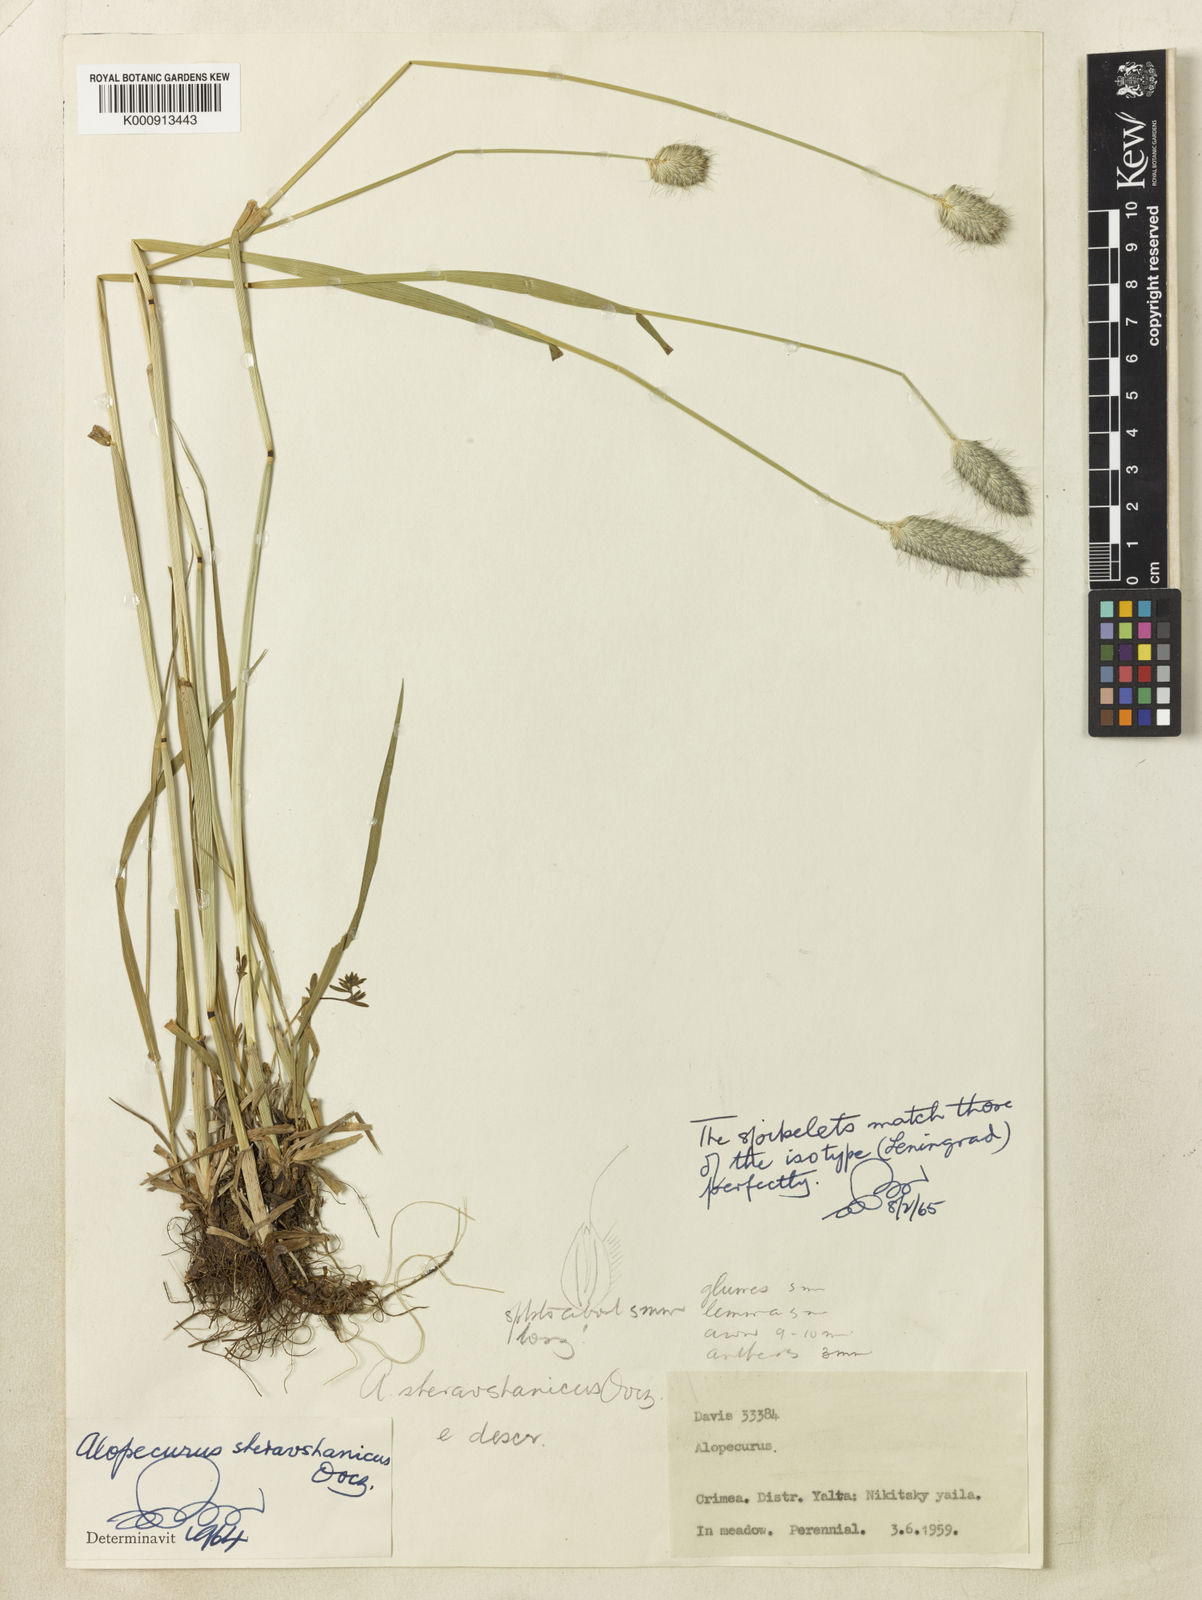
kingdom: Plantae
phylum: Tracheophyta
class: Liliopsida
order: Poales
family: Poaceae
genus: Alopecurus
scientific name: Alopecurus pratensis
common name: Meadow foxtail
